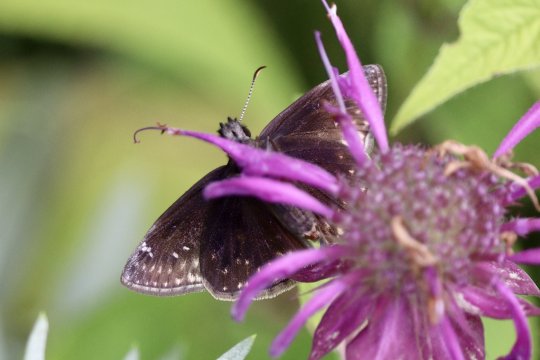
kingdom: Animalia
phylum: Arthropoda
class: Insecta
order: Lepidoptera
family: Hesperiidae
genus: Gesta
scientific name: Gesta
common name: Wild Indigo Duskywing
